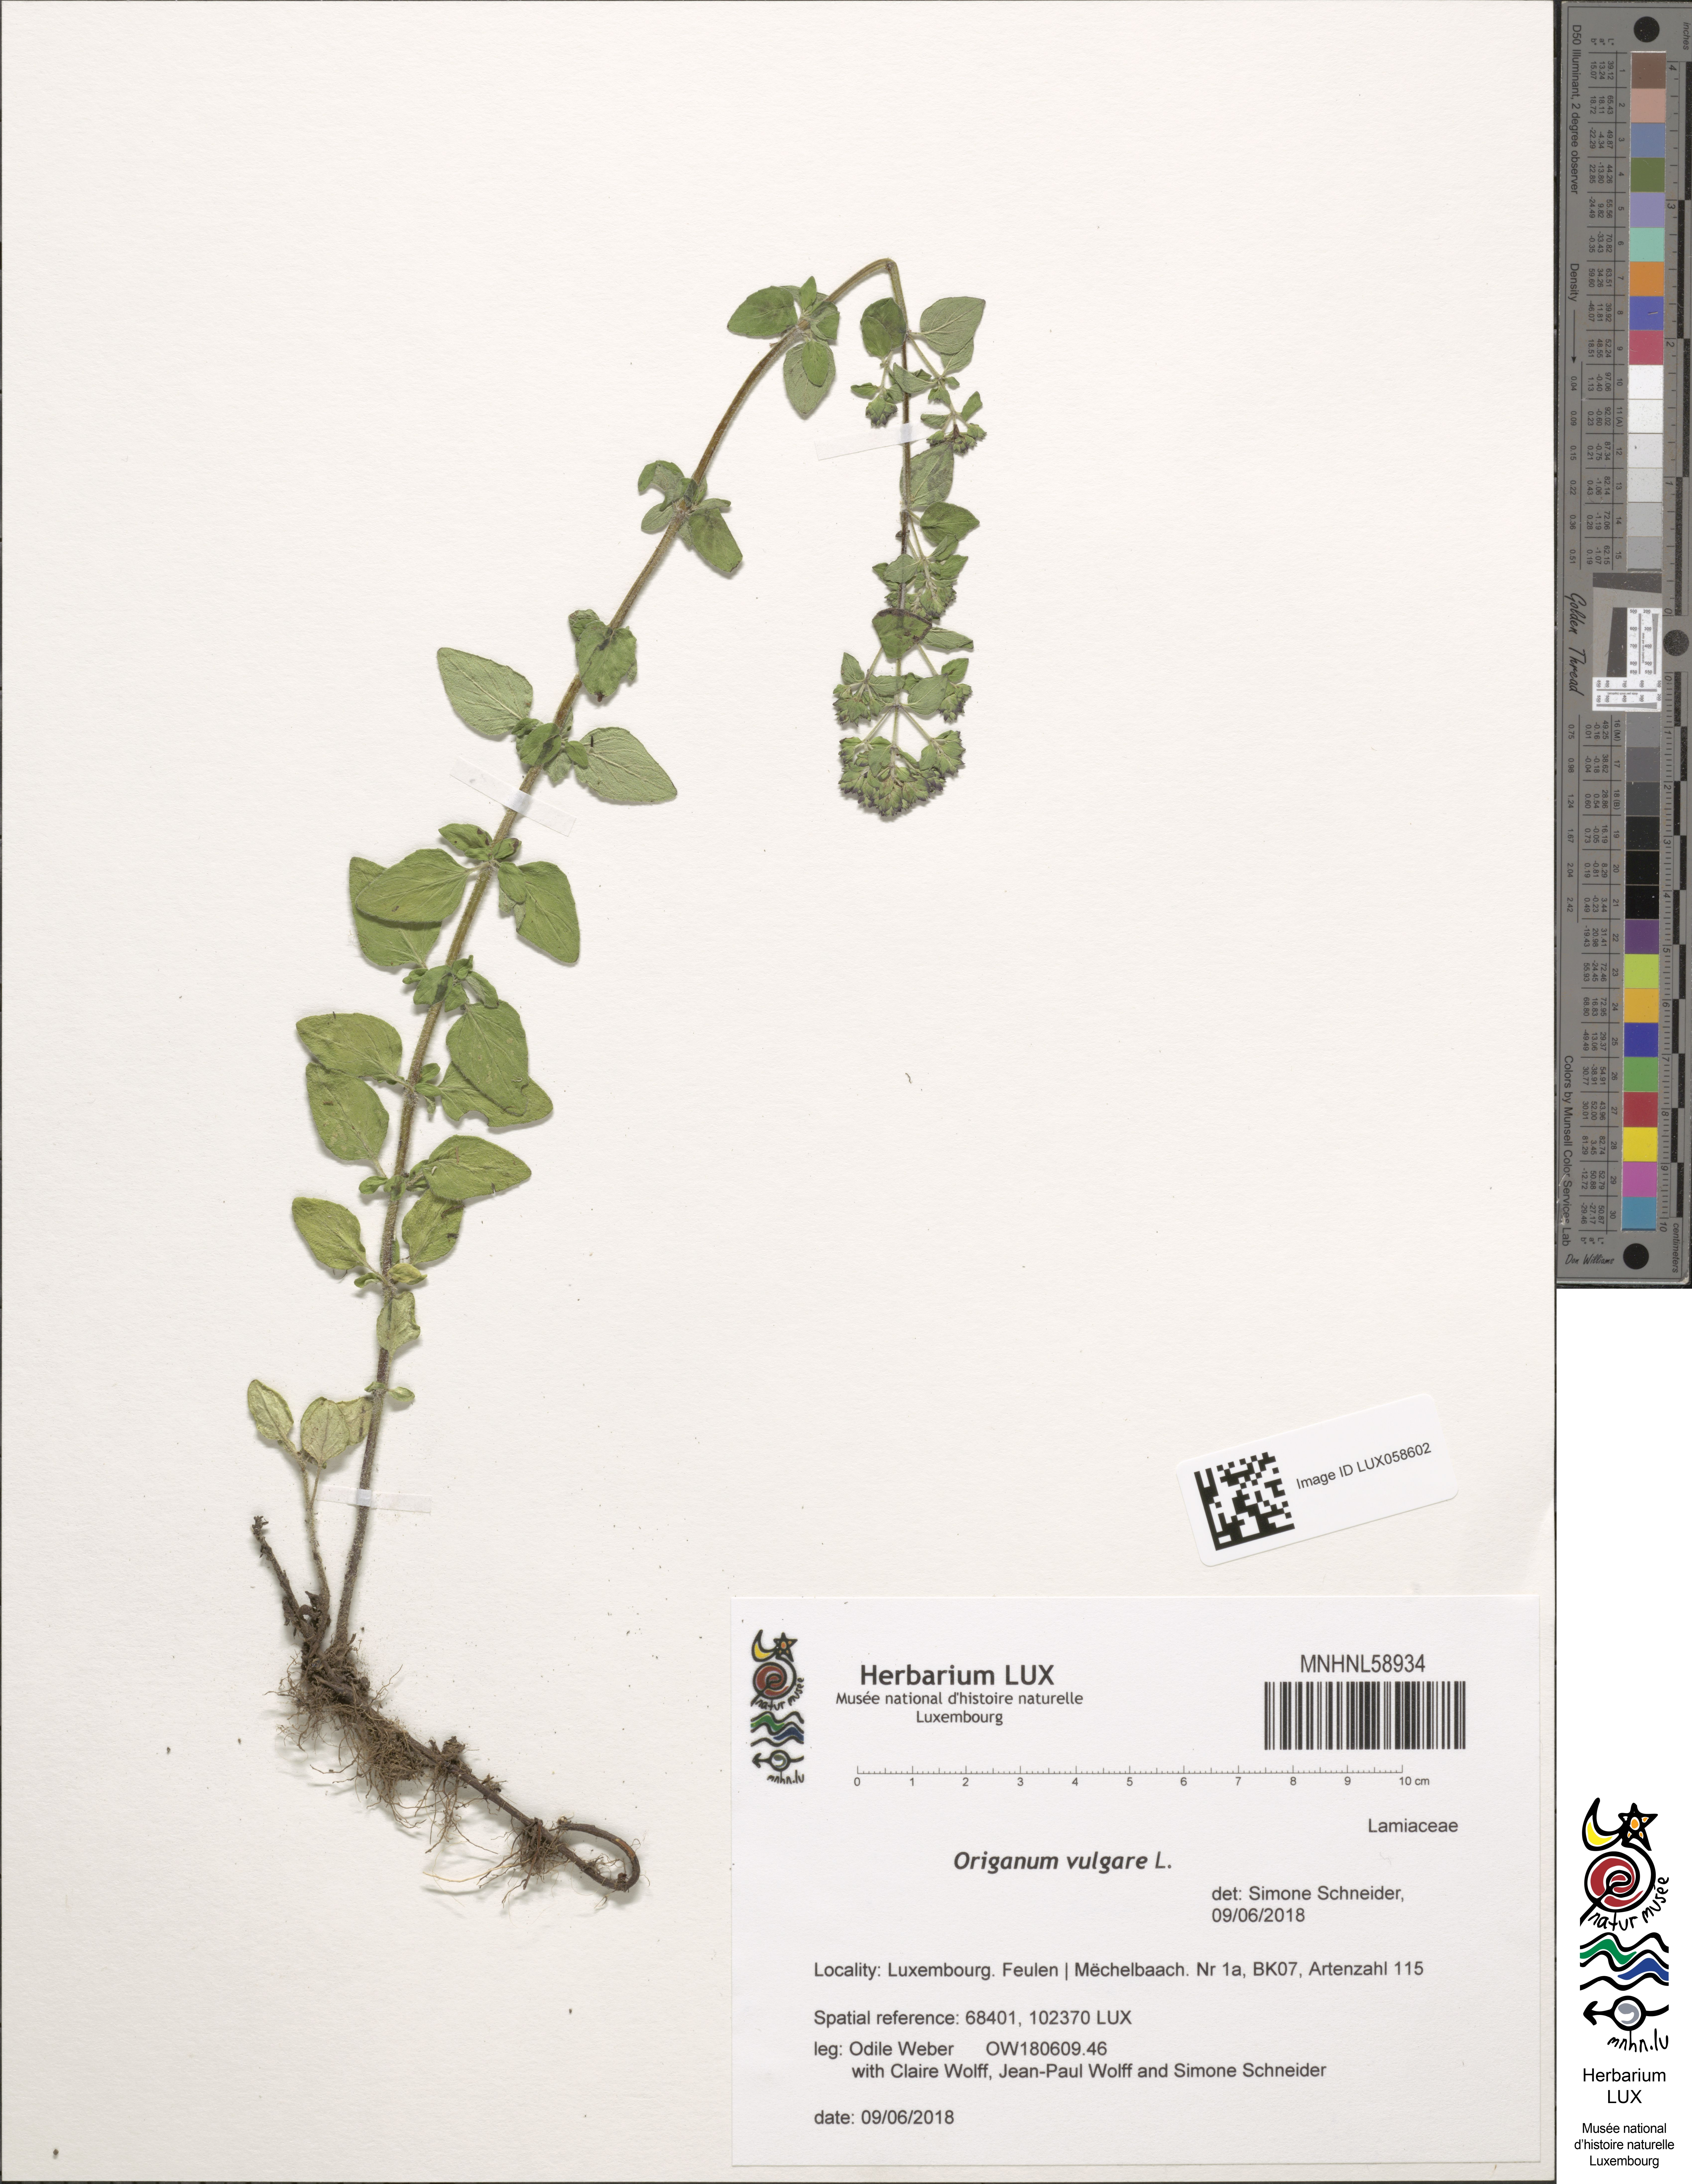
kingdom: Plantae
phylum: Tracheophyta
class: Magnoliopsida
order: Lamiales
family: Lamiaceae
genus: Origanum
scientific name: Origanum vulgare
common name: Wild marjoram
